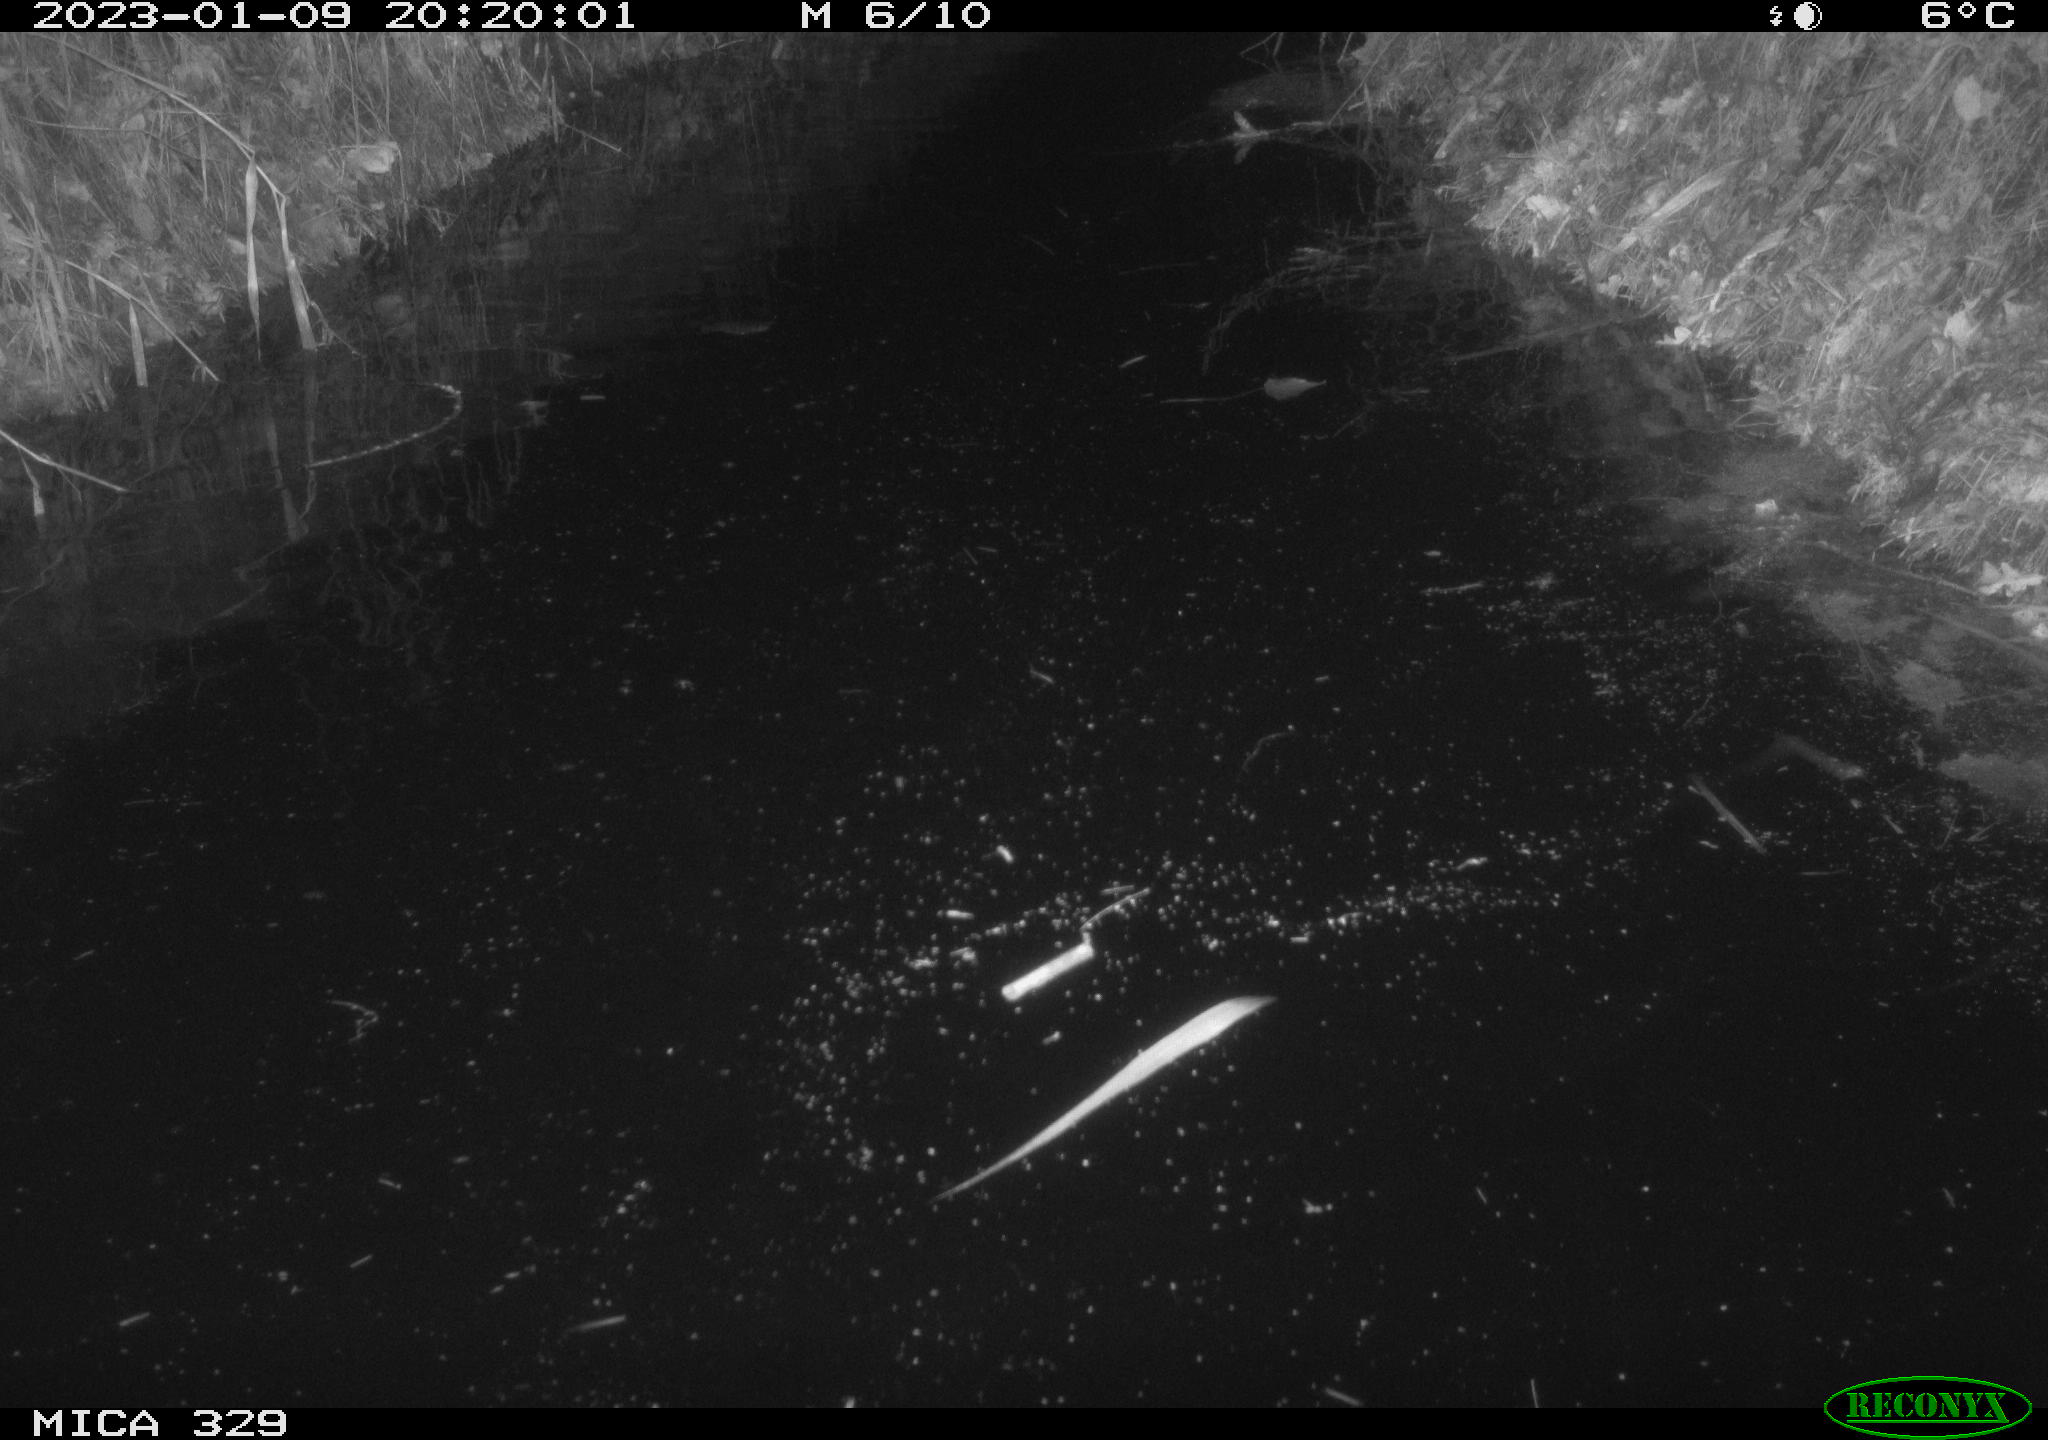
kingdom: Animalia
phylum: Chordata
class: Mammalia
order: Rodentia
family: Cricetidae
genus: Ondatra
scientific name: Ondatra zibethicus
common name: Muskrat
